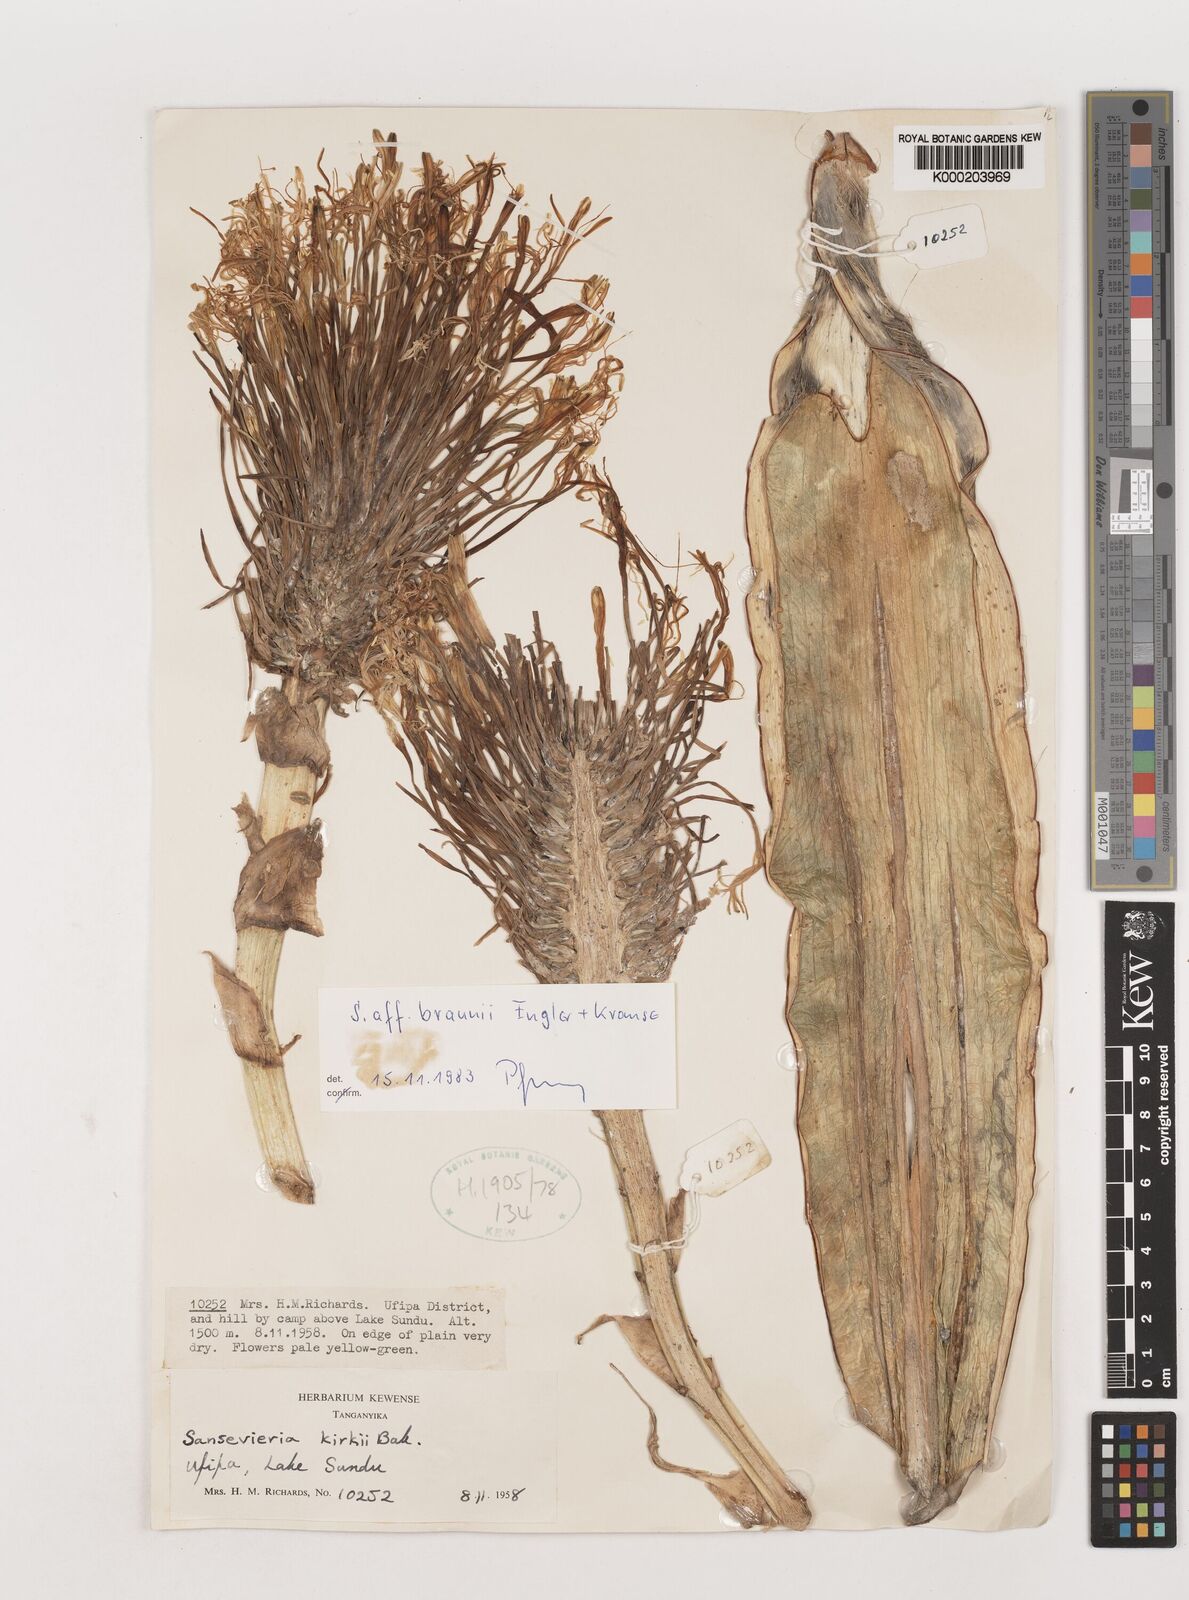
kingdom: Plantae
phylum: Tracheophyta
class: Liliopsida
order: Asparagales
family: Asparagaceae
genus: Dracaena
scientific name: Dracaena testudinea
